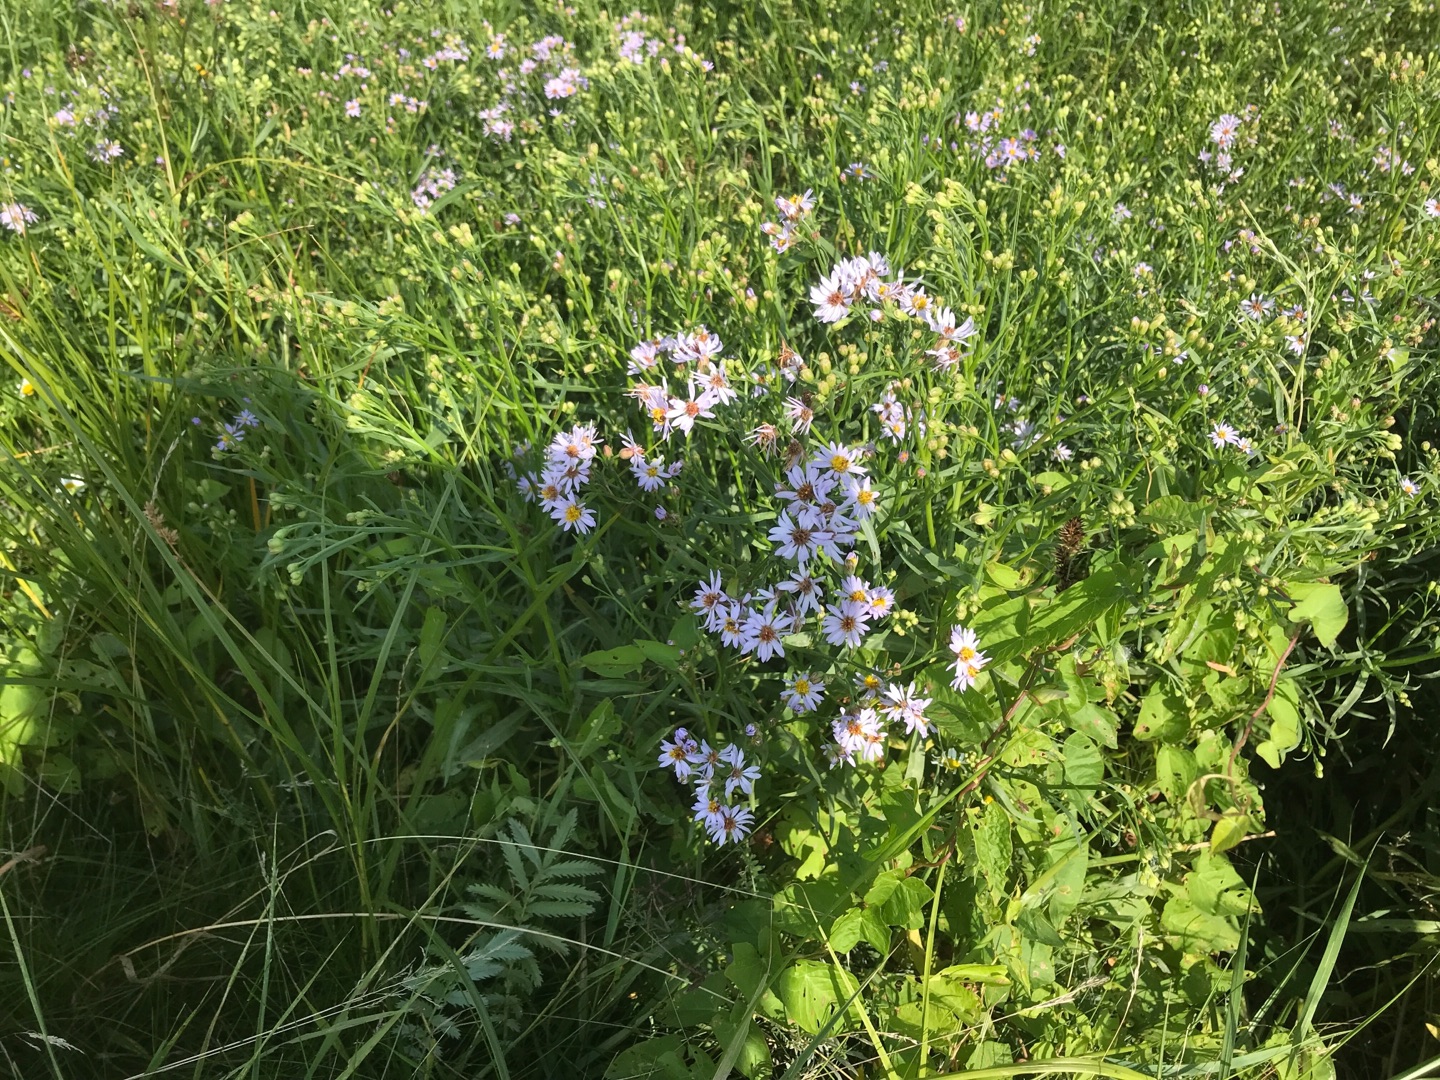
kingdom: Plantae
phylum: Tracheophyta
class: Magnoliopsida
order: Asterales
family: Asteraceae
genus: Tripolium
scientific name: Tripolium pannonicum
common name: Strandasters
